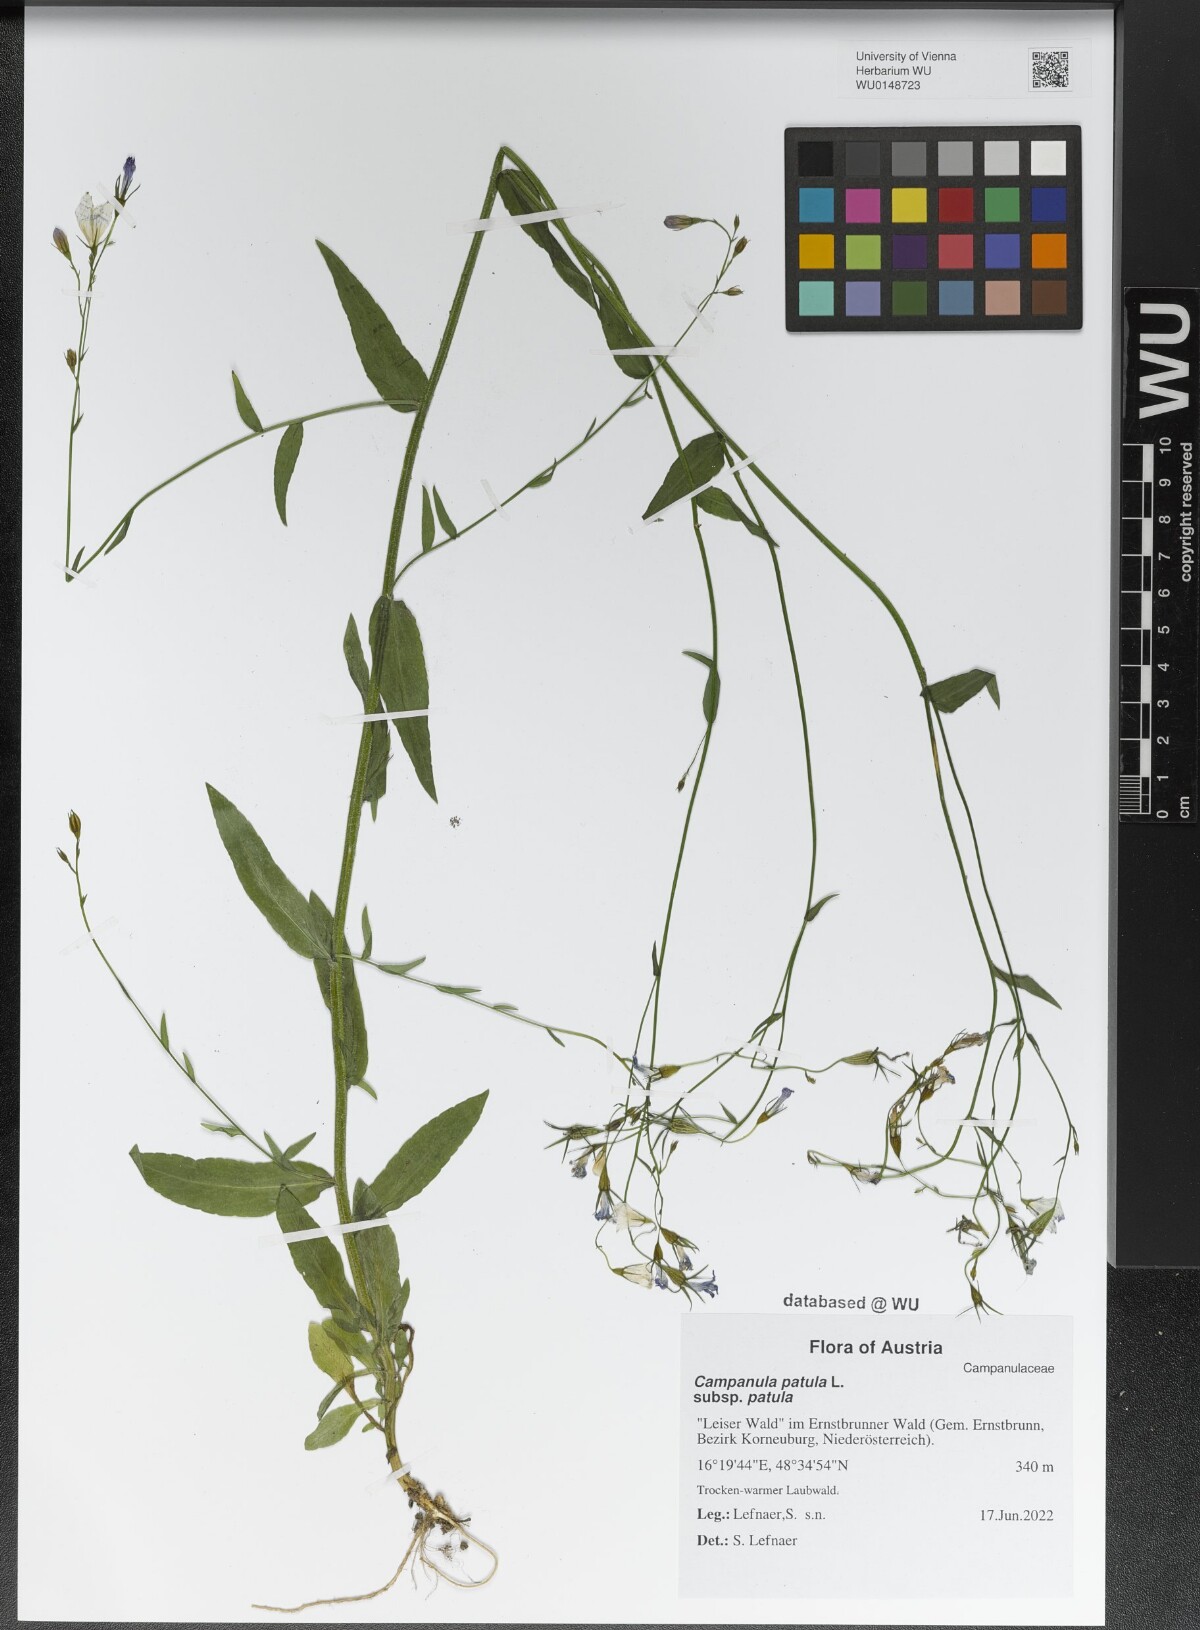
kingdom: Plantae
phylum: Tracheophyta
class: Magnoliopsida
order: Asterales
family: Campanulaceae
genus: Campanula
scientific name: Campanula patula
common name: Spreading bellflower
